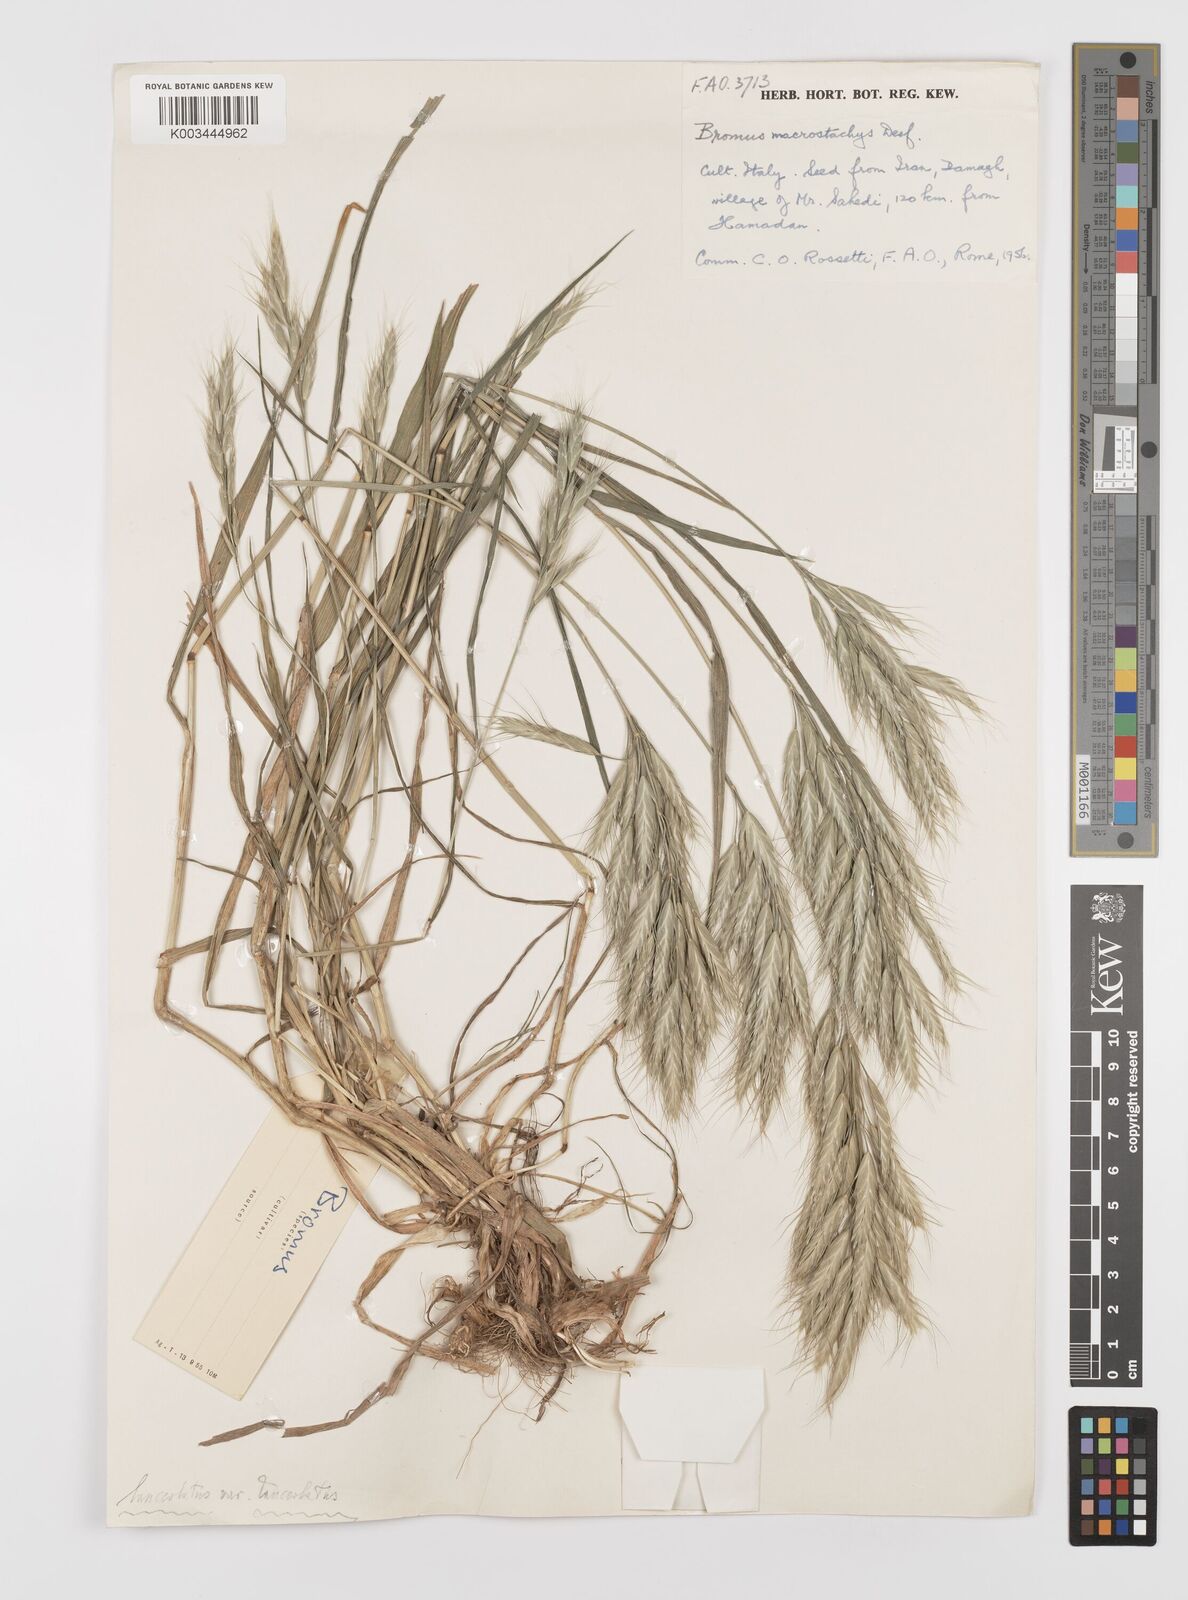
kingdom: Plantae
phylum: Tracheophyta
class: Liliopsida
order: Poales
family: Poaceae
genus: Bromus
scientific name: Bromus lanceolatus
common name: Mediterranean brome
